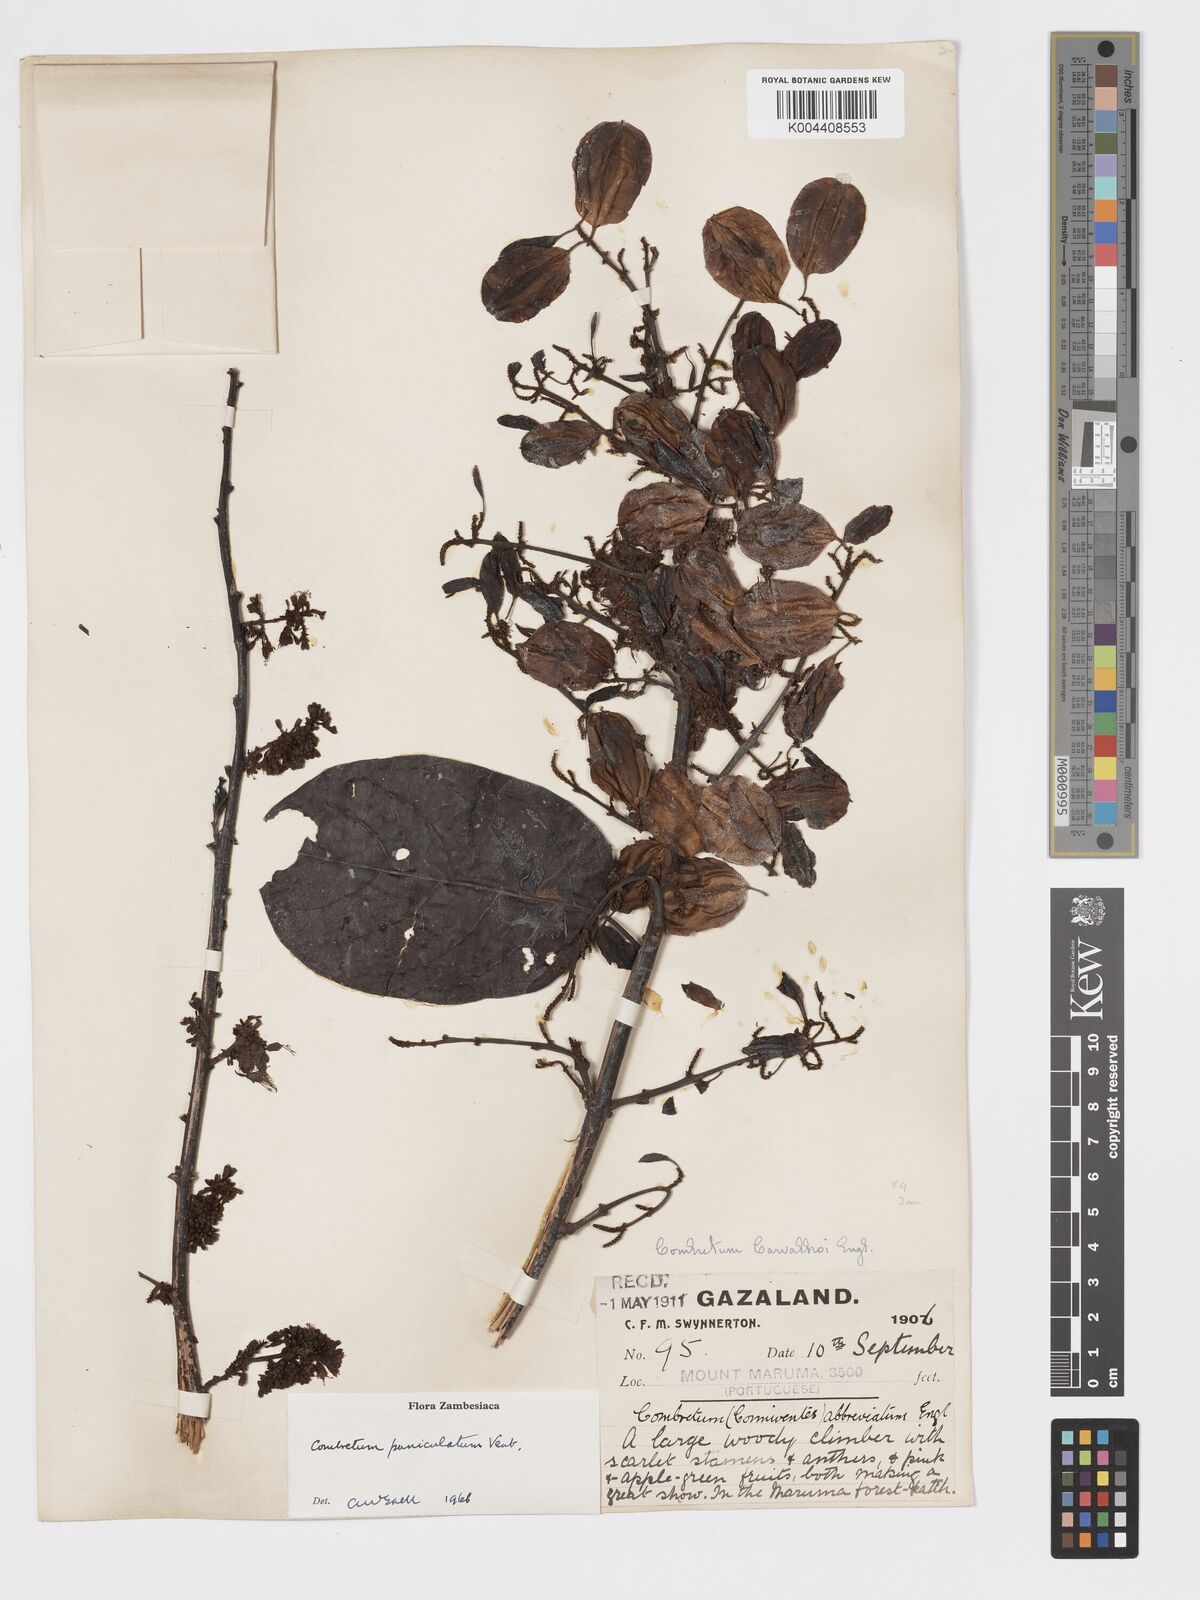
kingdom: Plantae
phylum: Tracheophyta
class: Magnoliopsida
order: Myrtales
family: Combretaceae
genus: Combretum
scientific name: Combretum paniculatum
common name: Fire vine
